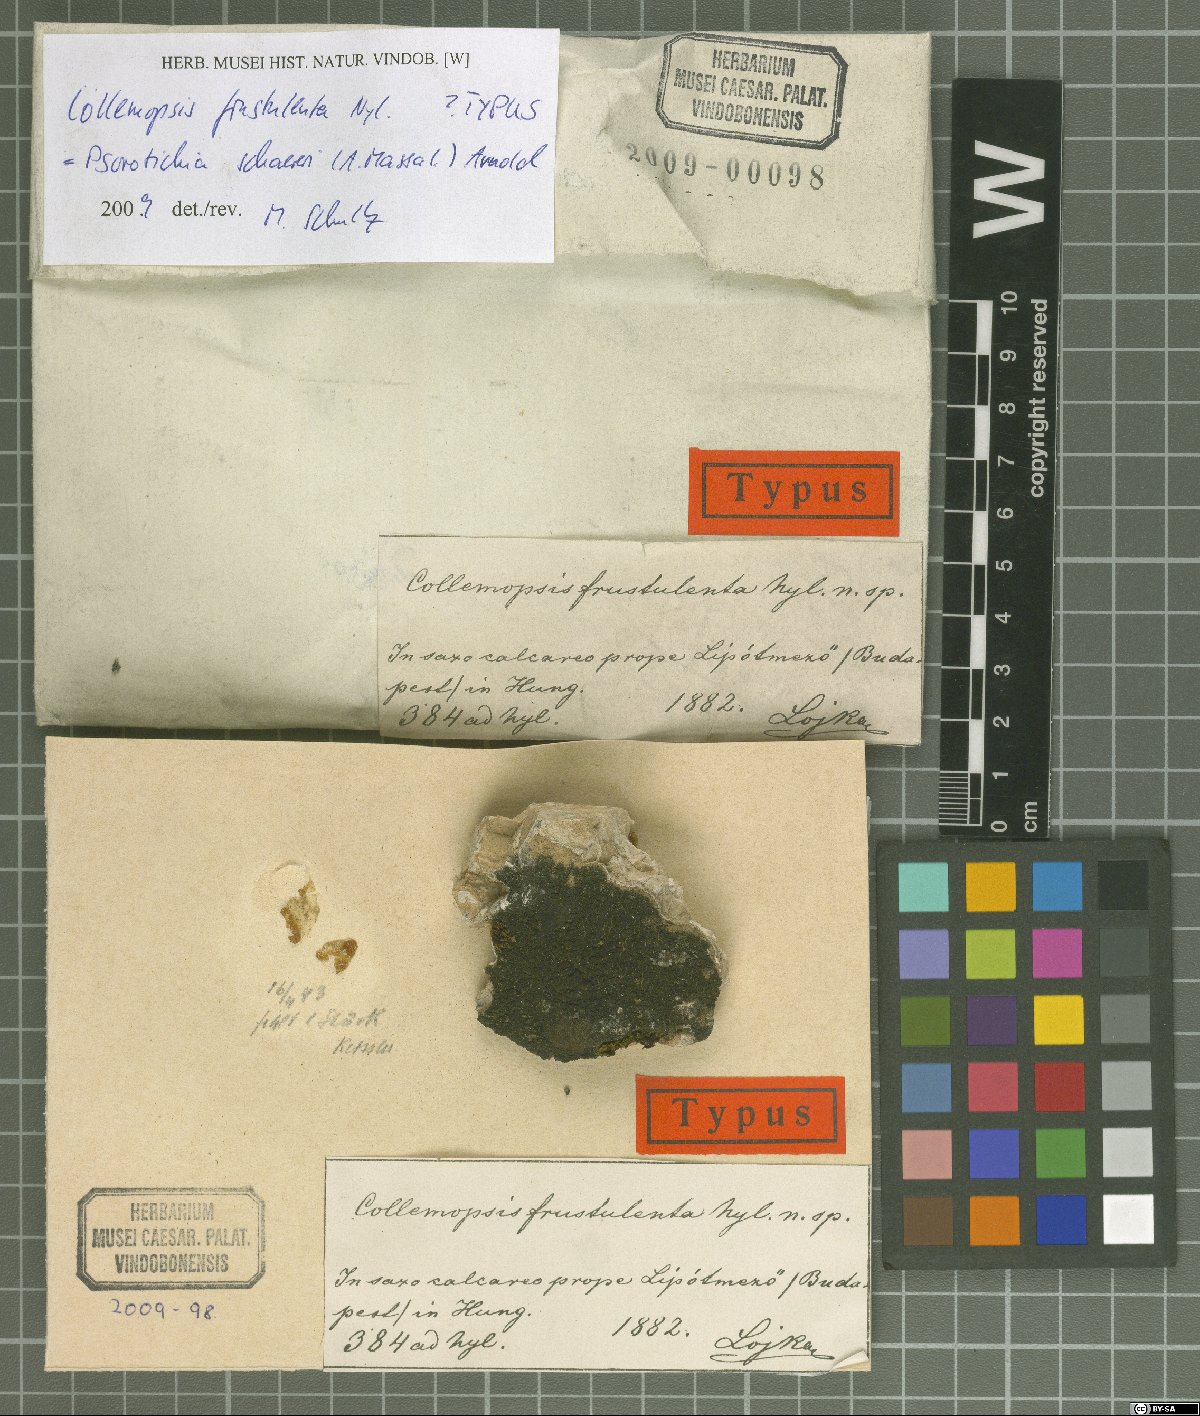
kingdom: Fungi
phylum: Ascomycota
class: Lichinomycetes
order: Lichinales
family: Lichinaceae
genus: Psorotichia
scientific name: Psorotichia
